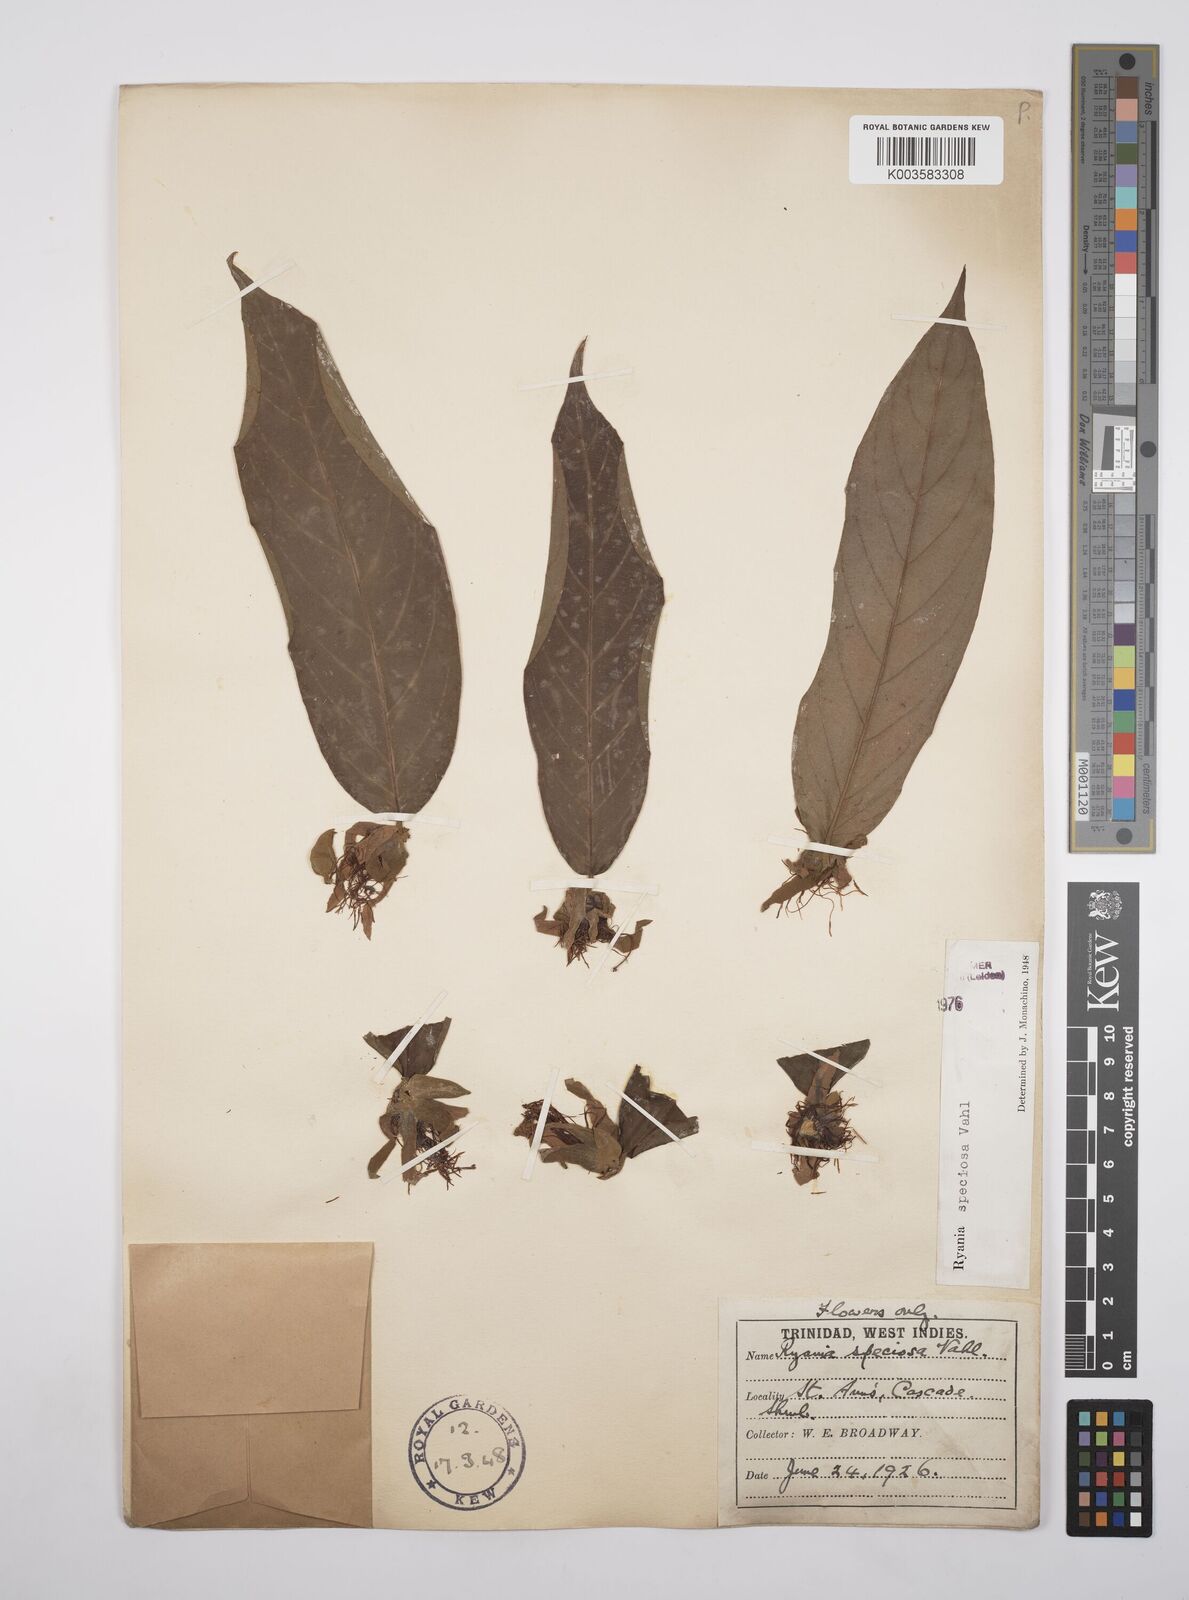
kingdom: Plantae
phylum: Tracheophyta
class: Magnoliopsida
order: Malpighiales
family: Salicaceae
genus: Ryania
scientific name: Ryania speciosa
